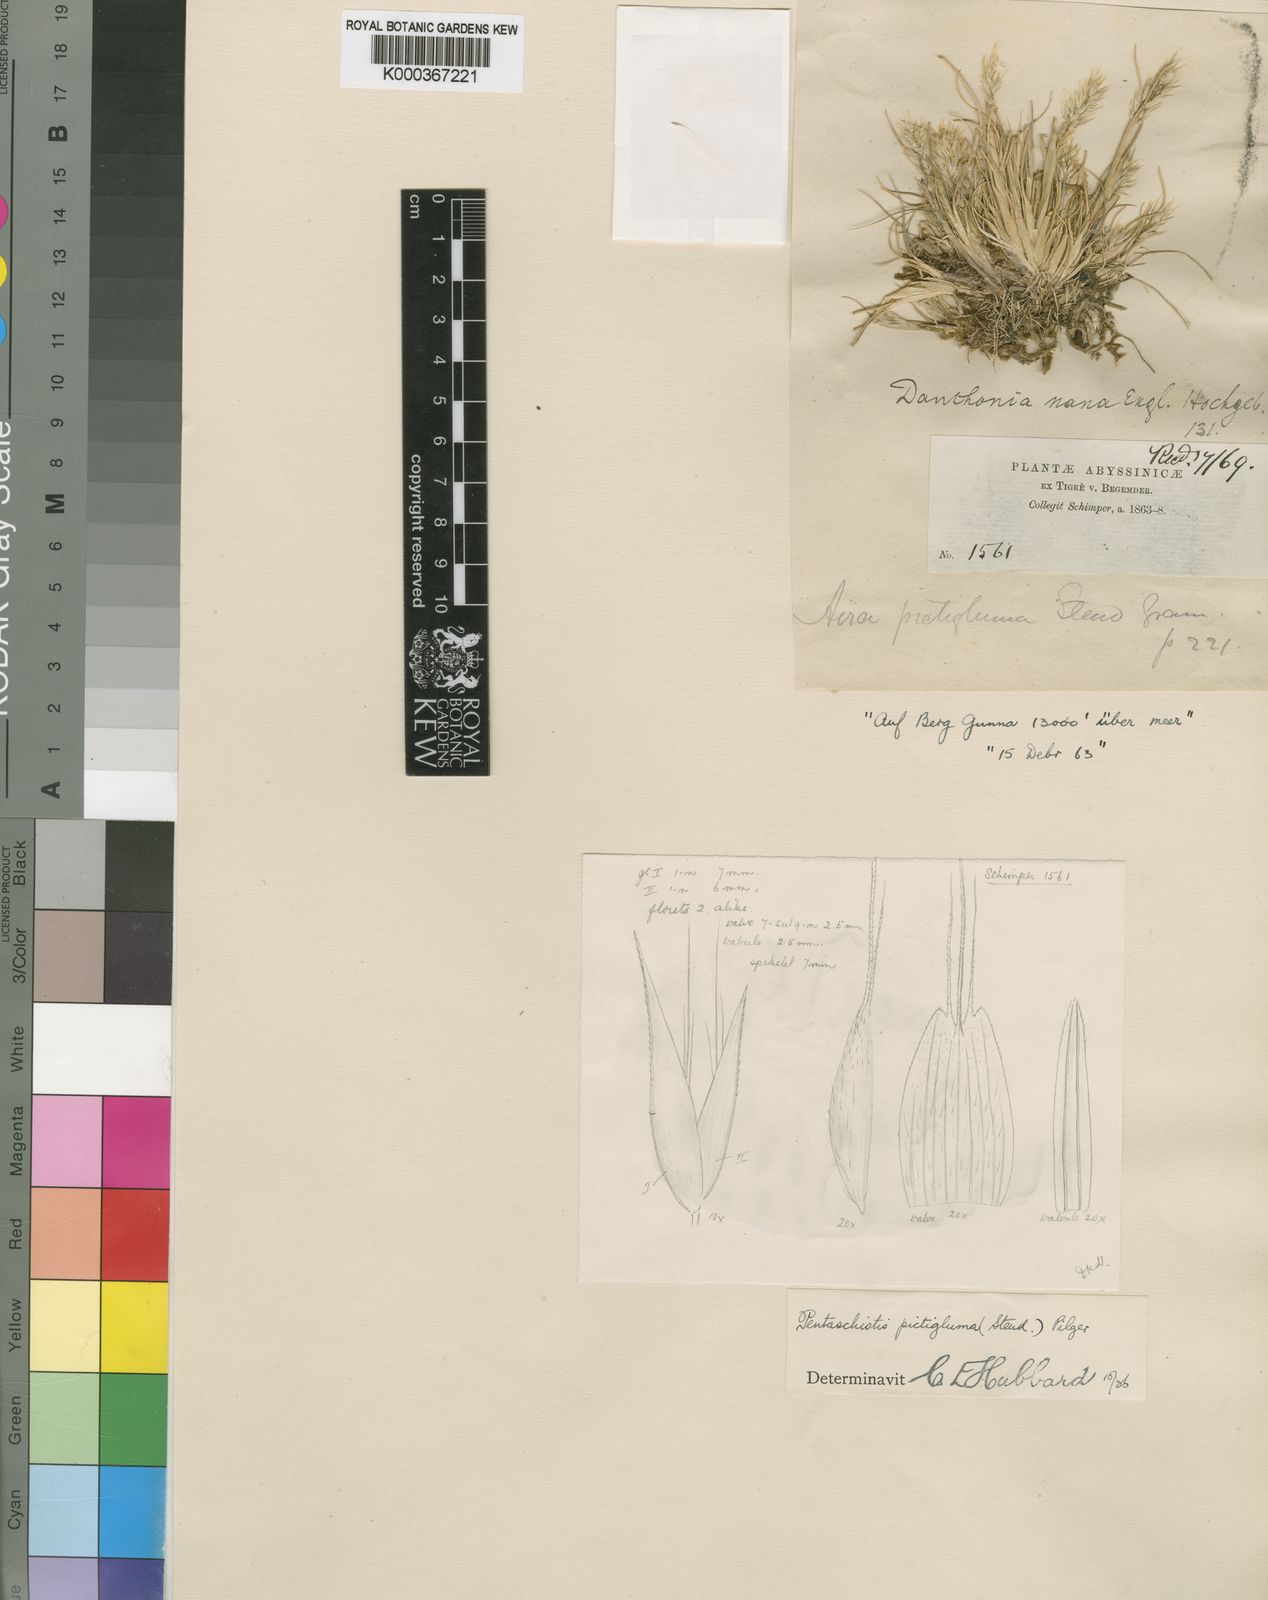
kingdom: Plantae
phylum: Tracheophyta
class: Liliopsida
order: Poales
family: Poaceae
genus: Pentameris
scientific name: Pentameris pictigluma
